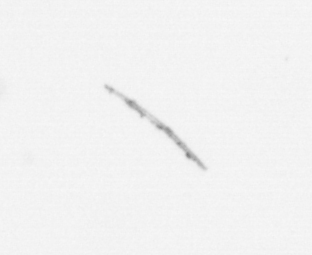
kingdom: Chromista
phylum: Ochrophyta
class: Bacillariophyceae
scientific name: Bacillariophyceae
